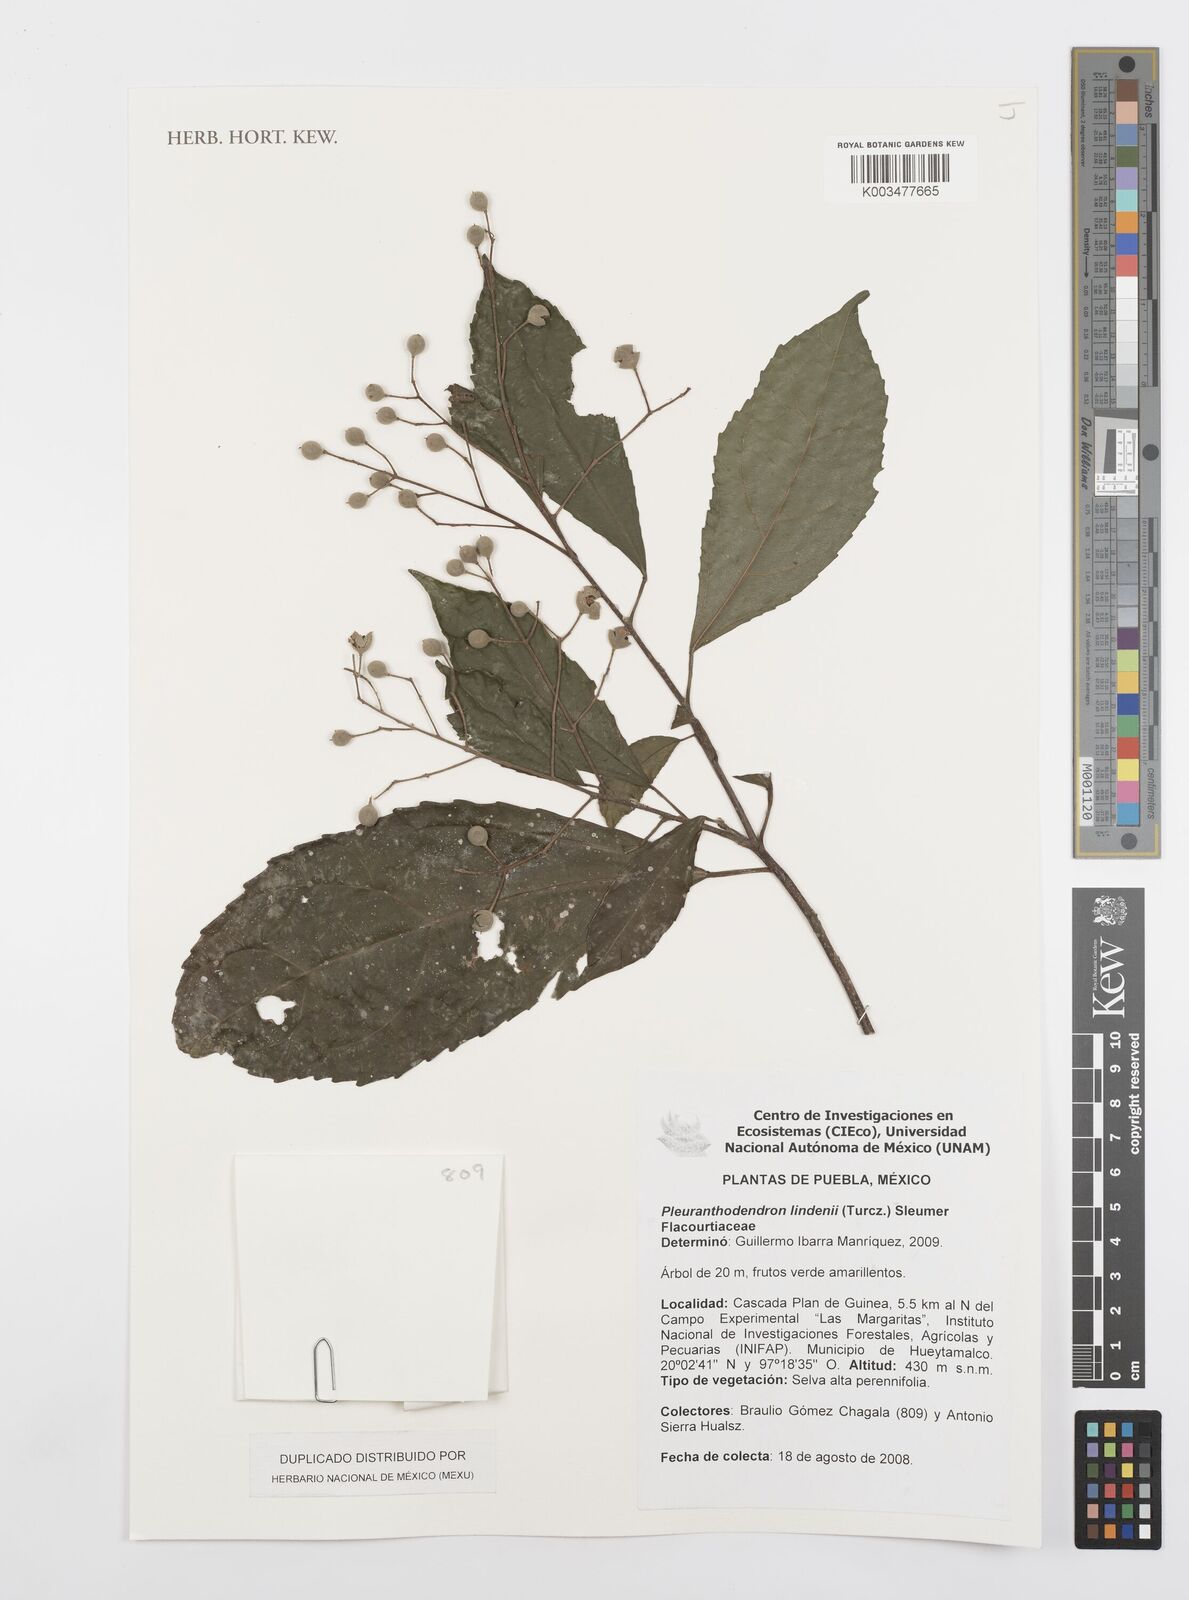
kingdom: Plantae
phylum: Tracheophyta
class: Magnoliopsida
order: Malpighiales
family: Salicaceae
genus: Pleuranthodendron
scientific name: Pleuranthodendron lindenii
